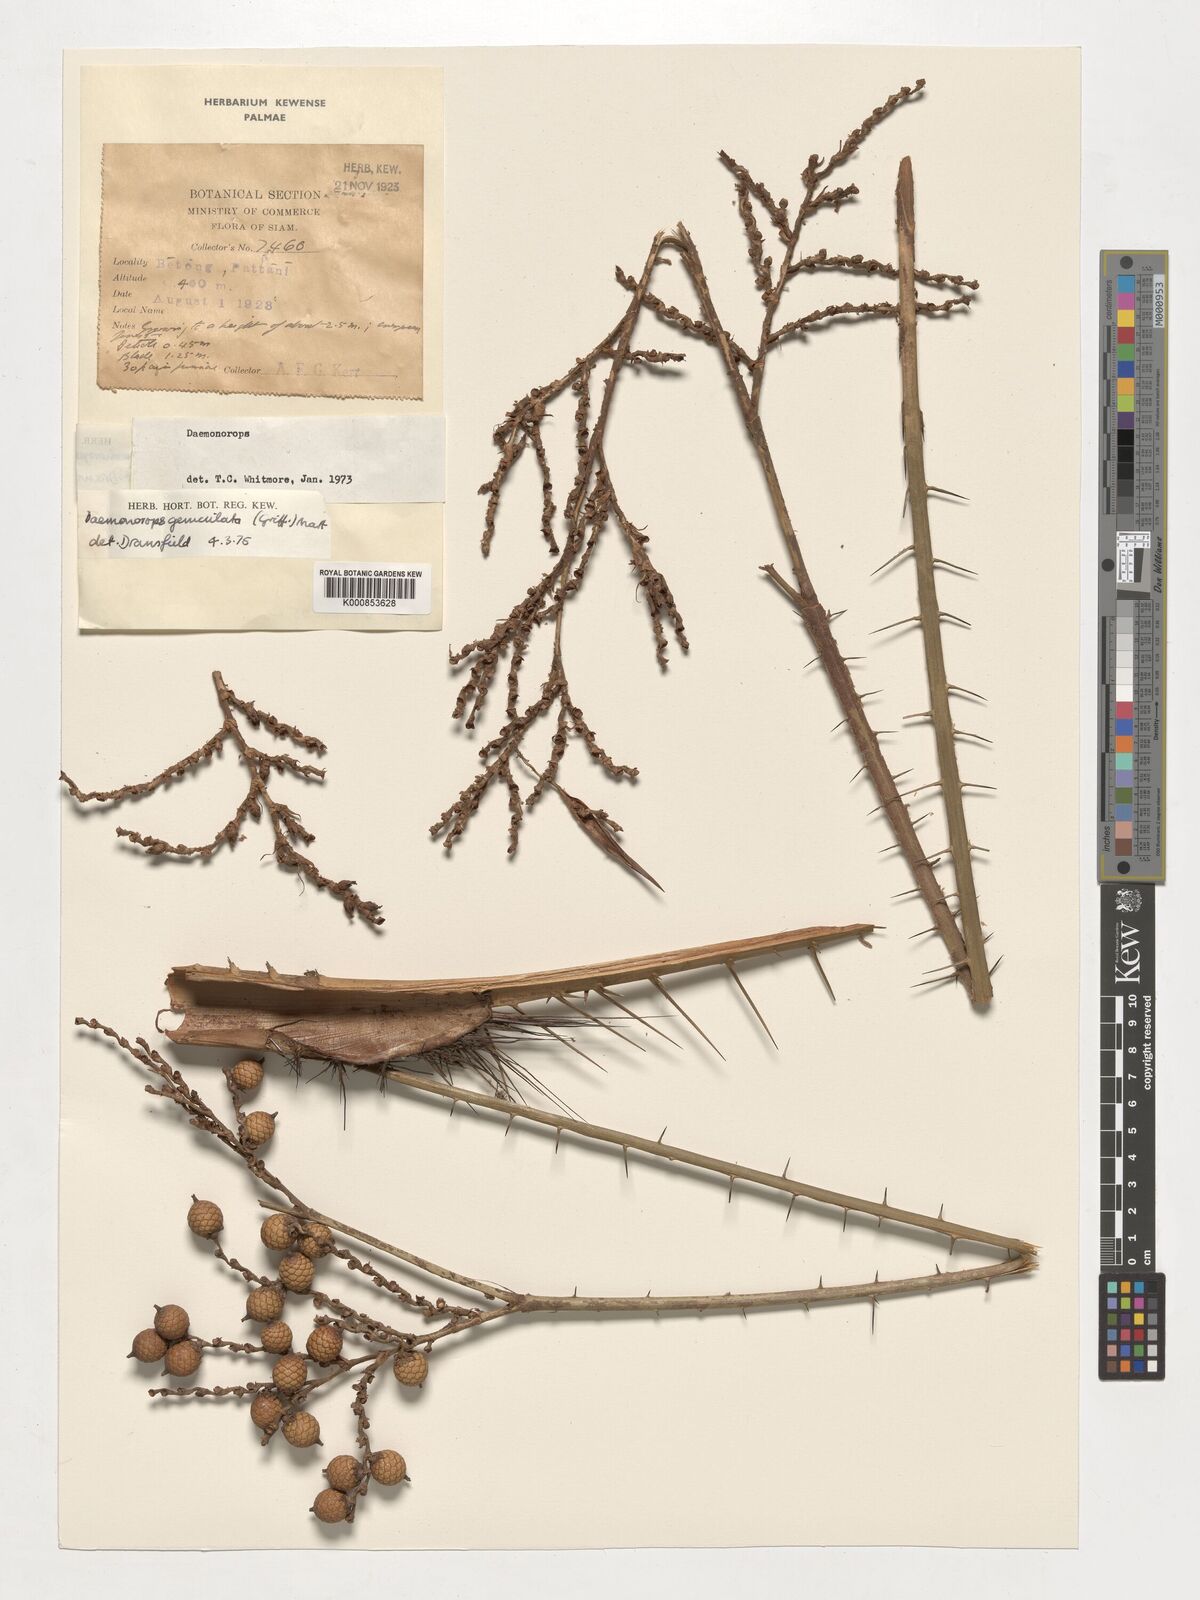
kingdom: Plantae
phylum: Tracheophyta
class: Liliopsida
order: Arecales
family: Arecaceae
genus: Calamus
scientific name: Calamus geniculatus
